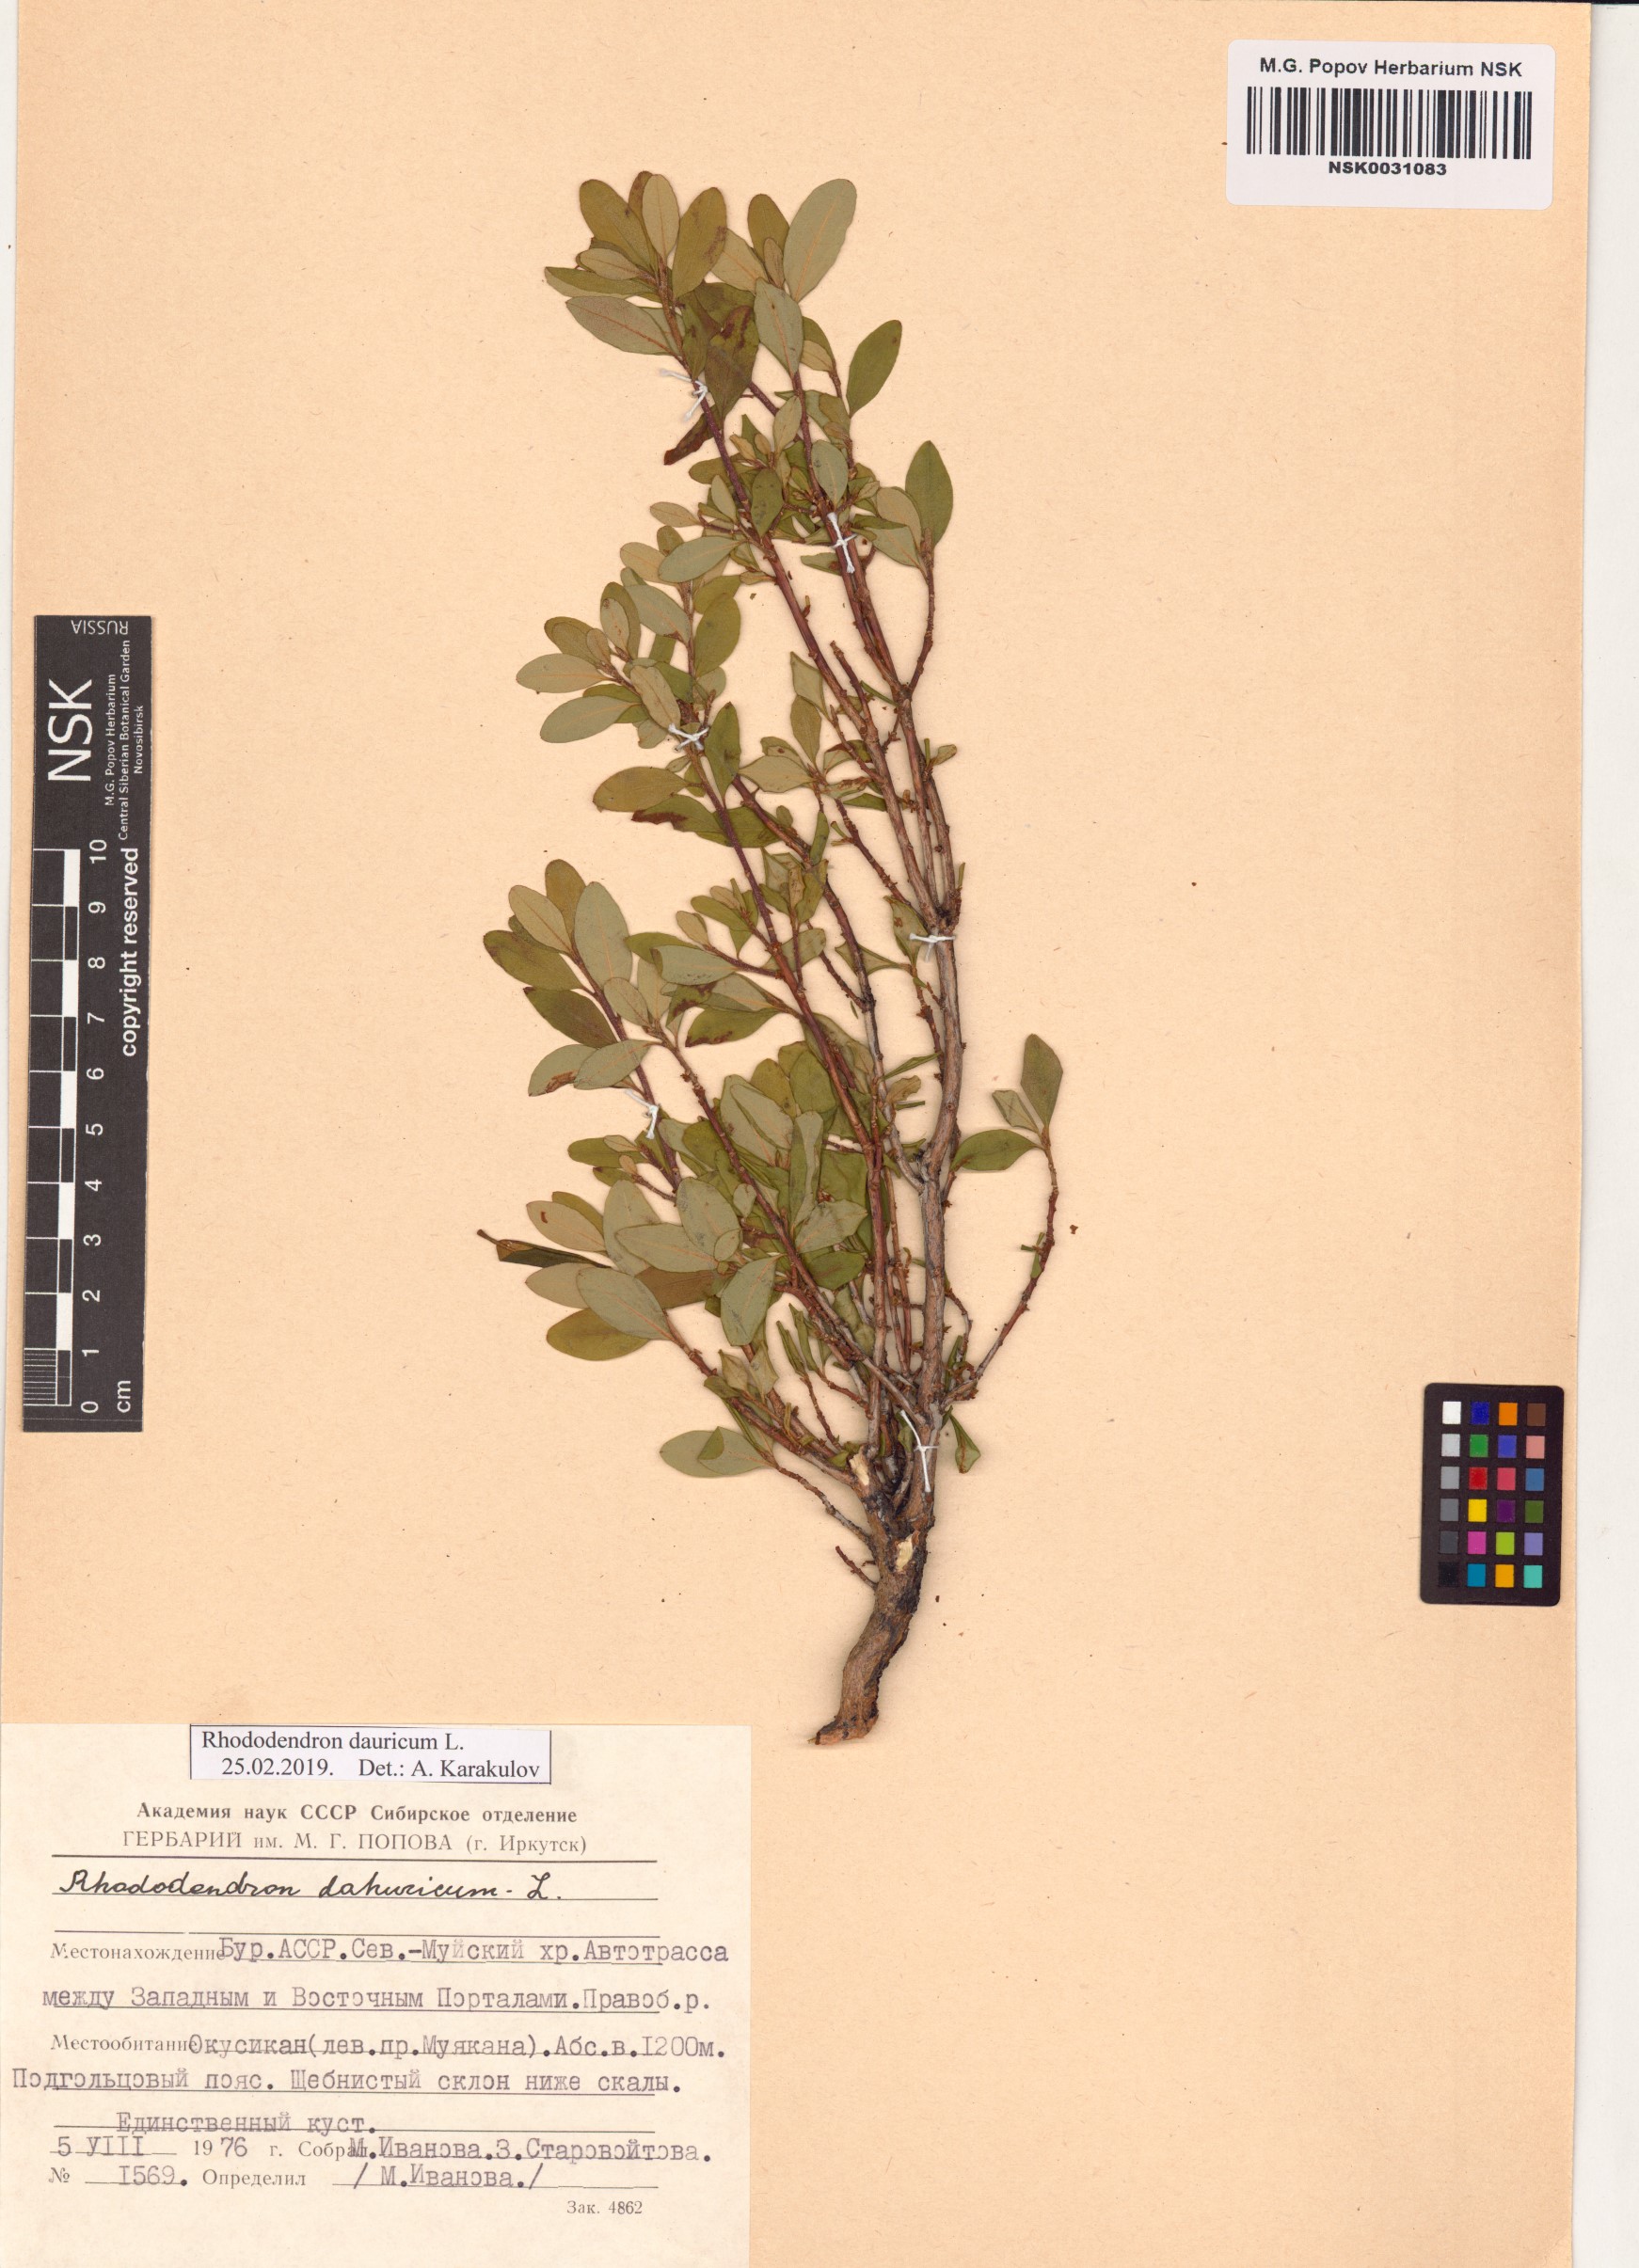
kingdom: Plantae
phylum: Tracheophyta
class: Magnoliopsida
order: Ericales
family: Ericaceae
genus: Rhododendron
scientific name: Rhododendron dauricum
